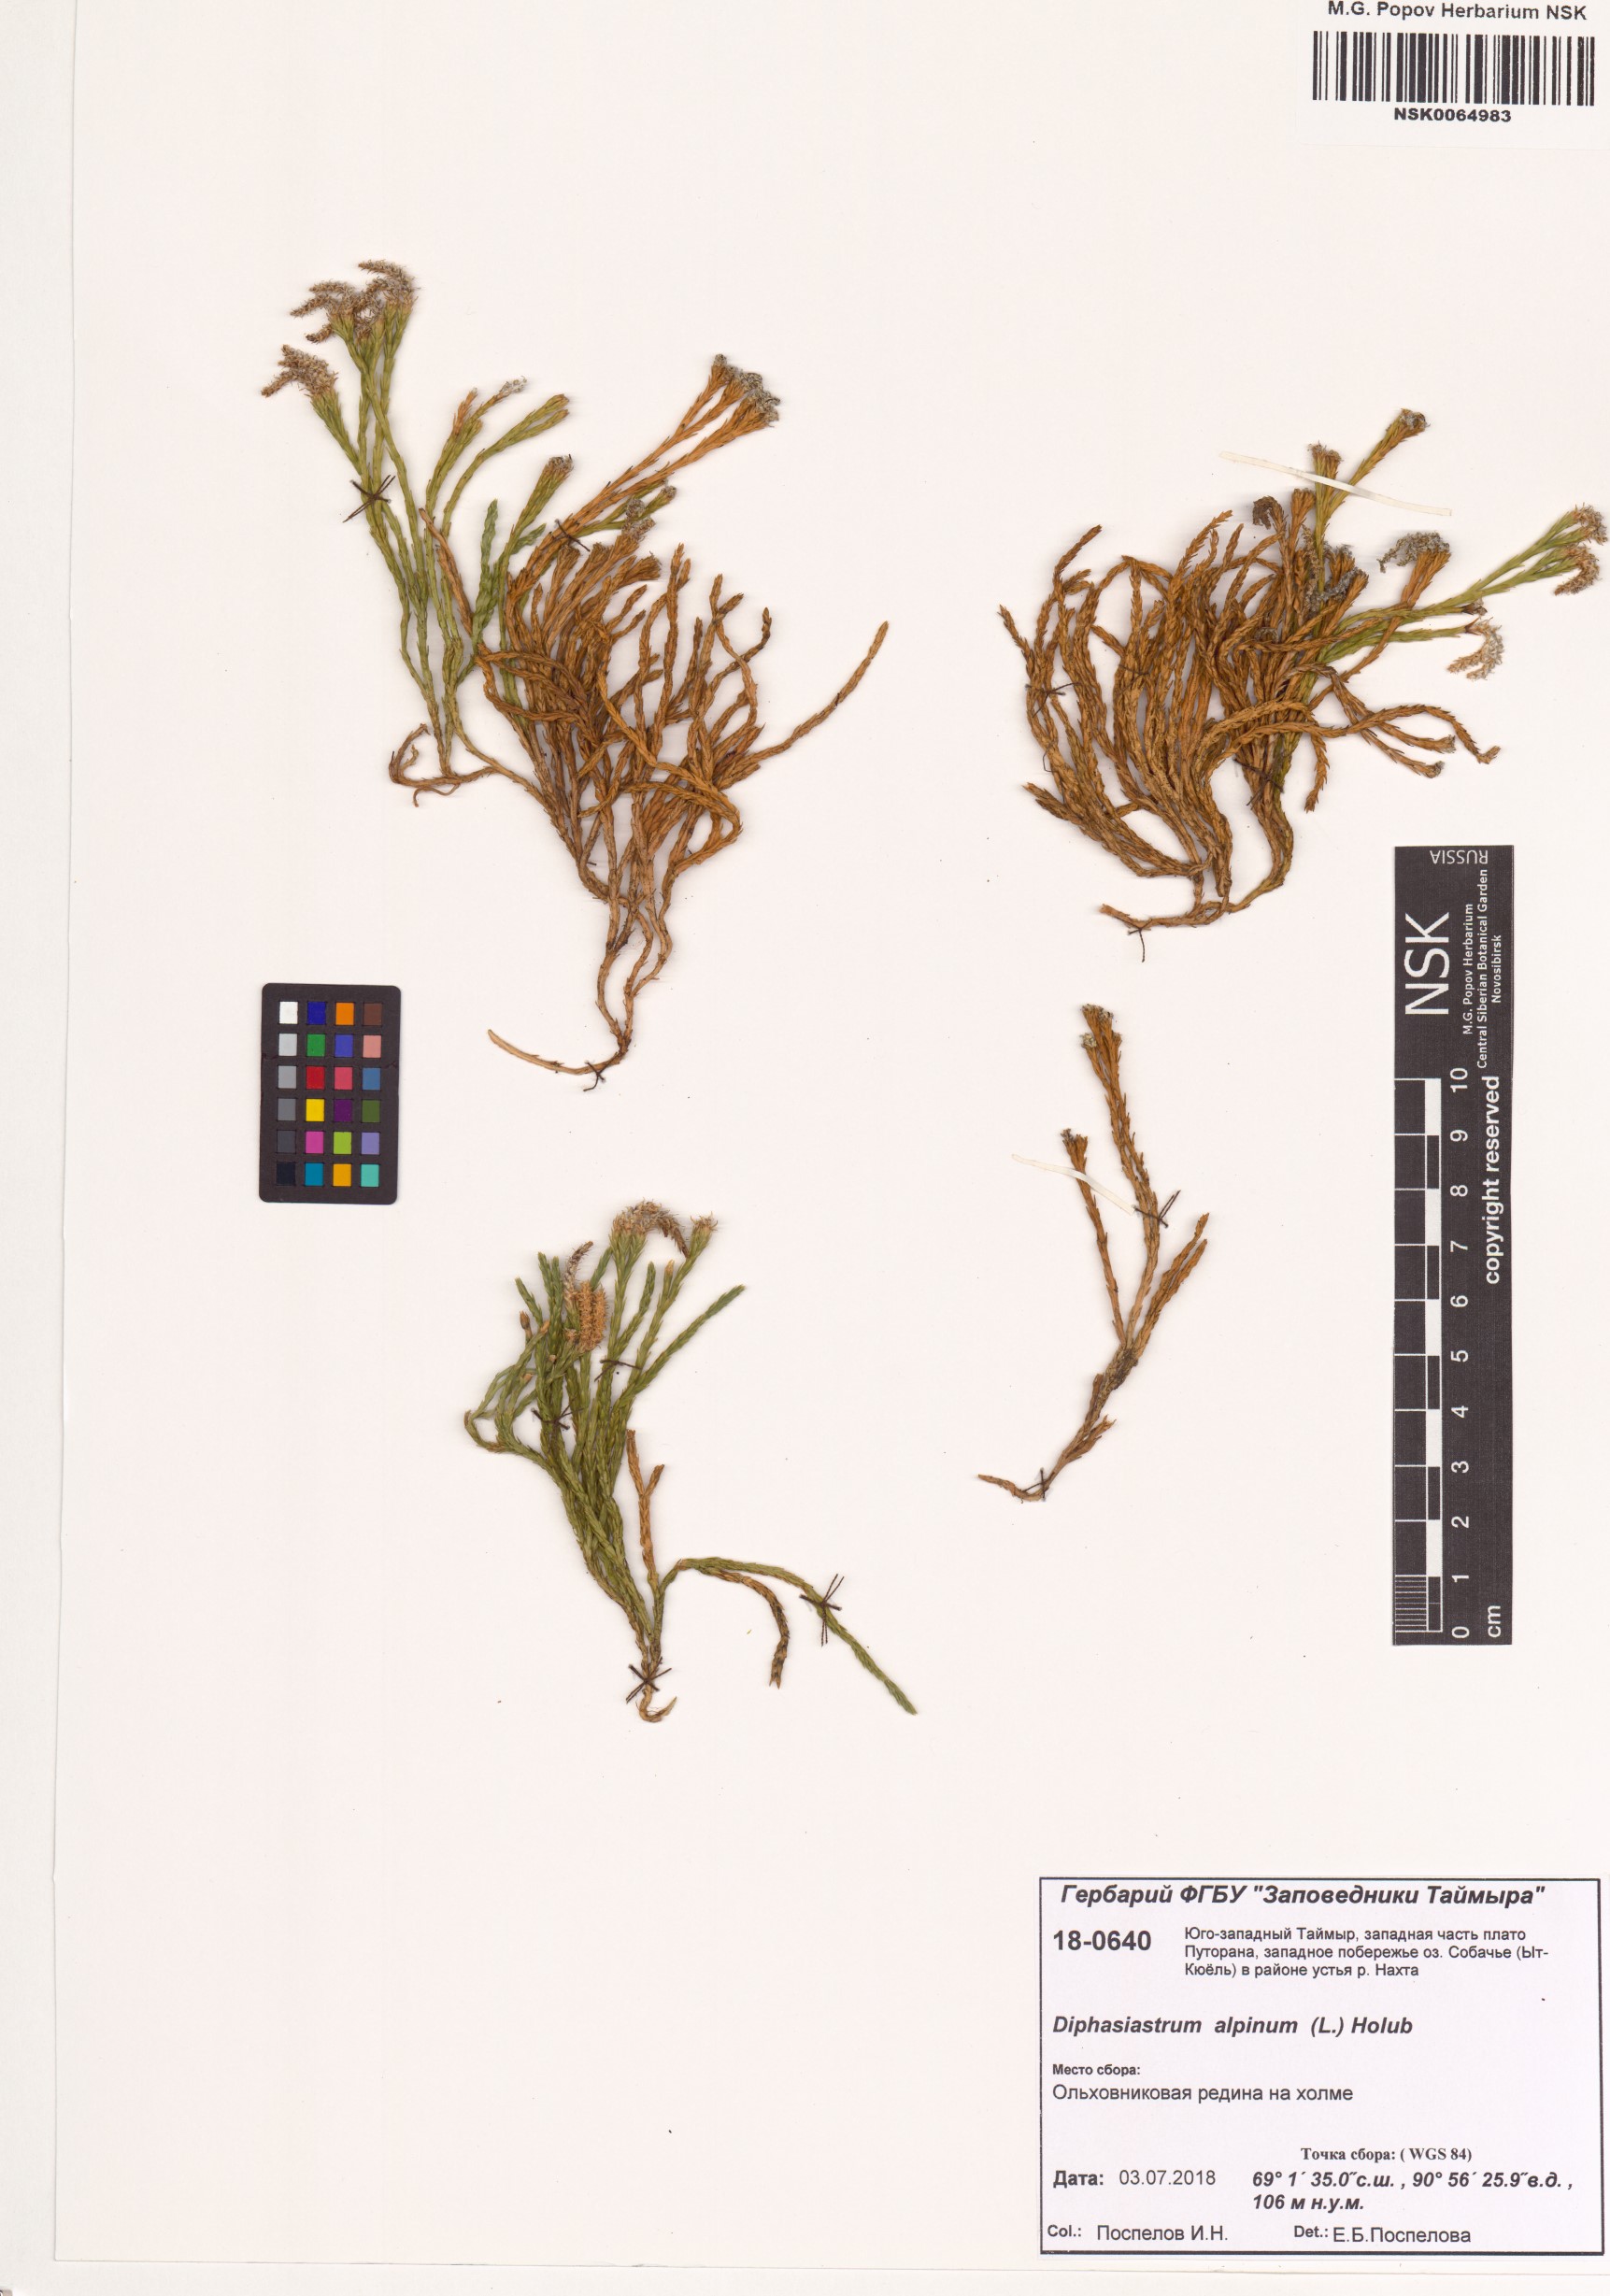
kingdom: Plantae
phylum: Tracheophyta
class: Lycopodiopsida
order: Lycopodiales
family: Lycopodiaceae
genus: Diphasiastrum
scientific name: Diphasiastrum alpinum
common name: Alpine clubmoss
